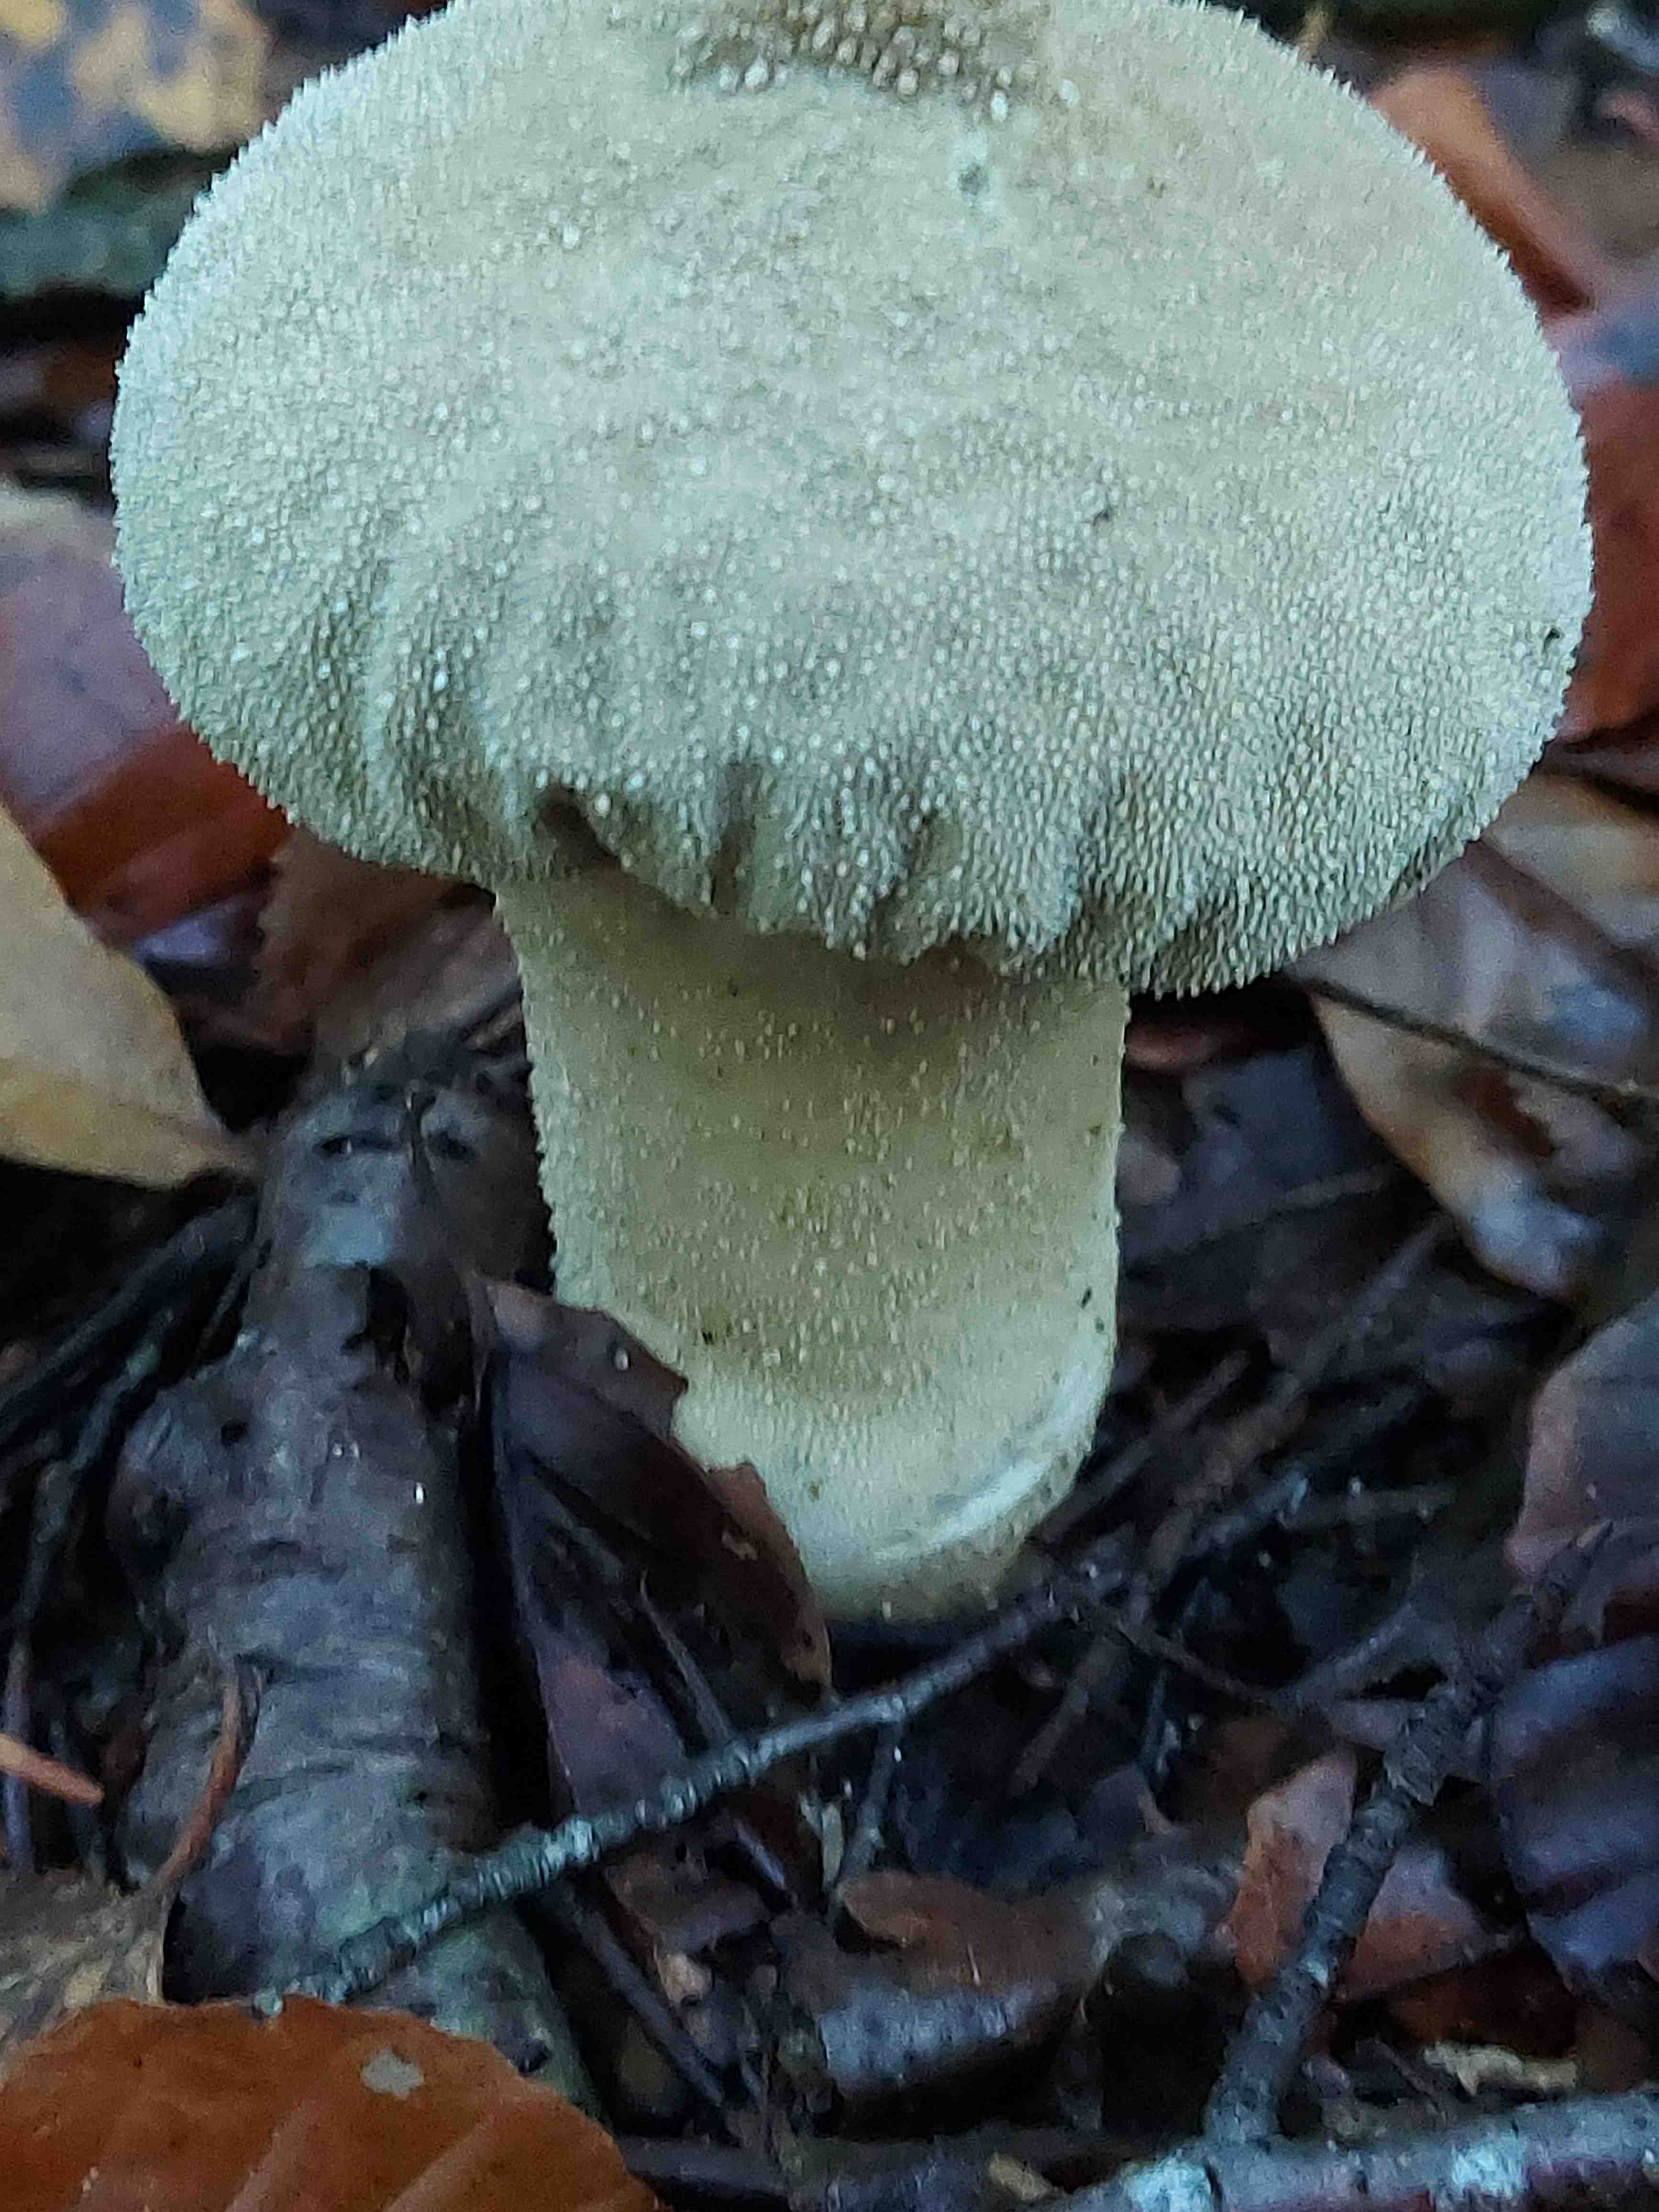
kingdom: Fungi
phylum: Basidiomycota
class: Agaricomycetes
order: Agaricales
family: Lycoperdaceae
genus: Lycoperdon
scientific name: Lycoperdon excipuliforme
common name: højstokket støvbold
